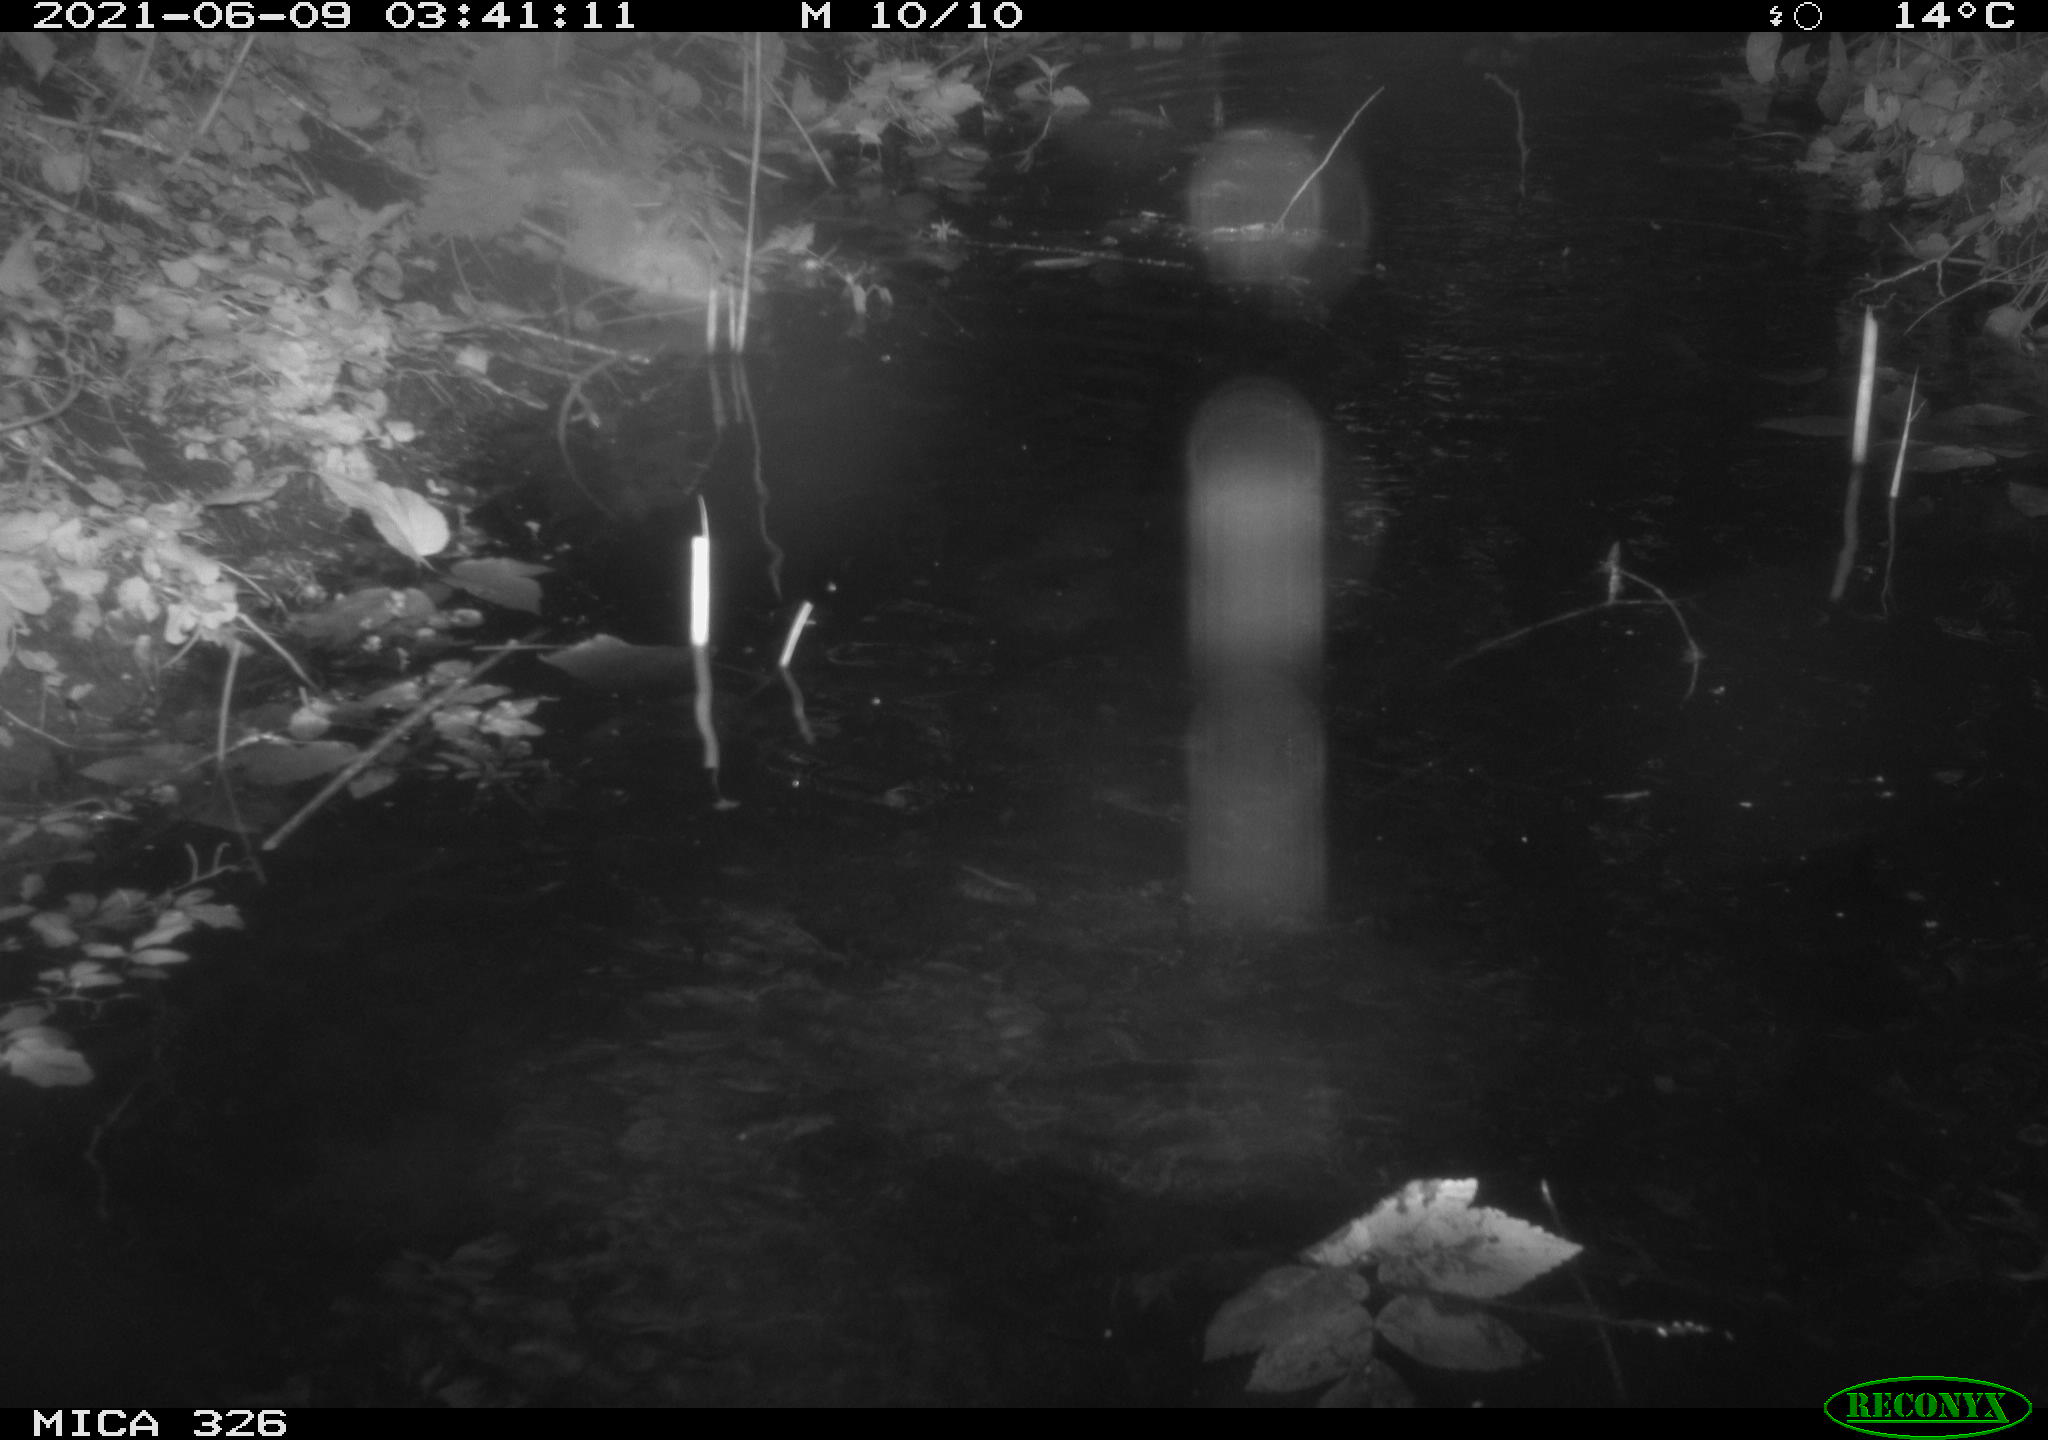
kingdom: Animalia
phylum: Chordata
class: Aves
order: Anseriformes
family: Anatidae
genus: Anas
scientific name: Anas platyrhynchos
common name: Mallard
